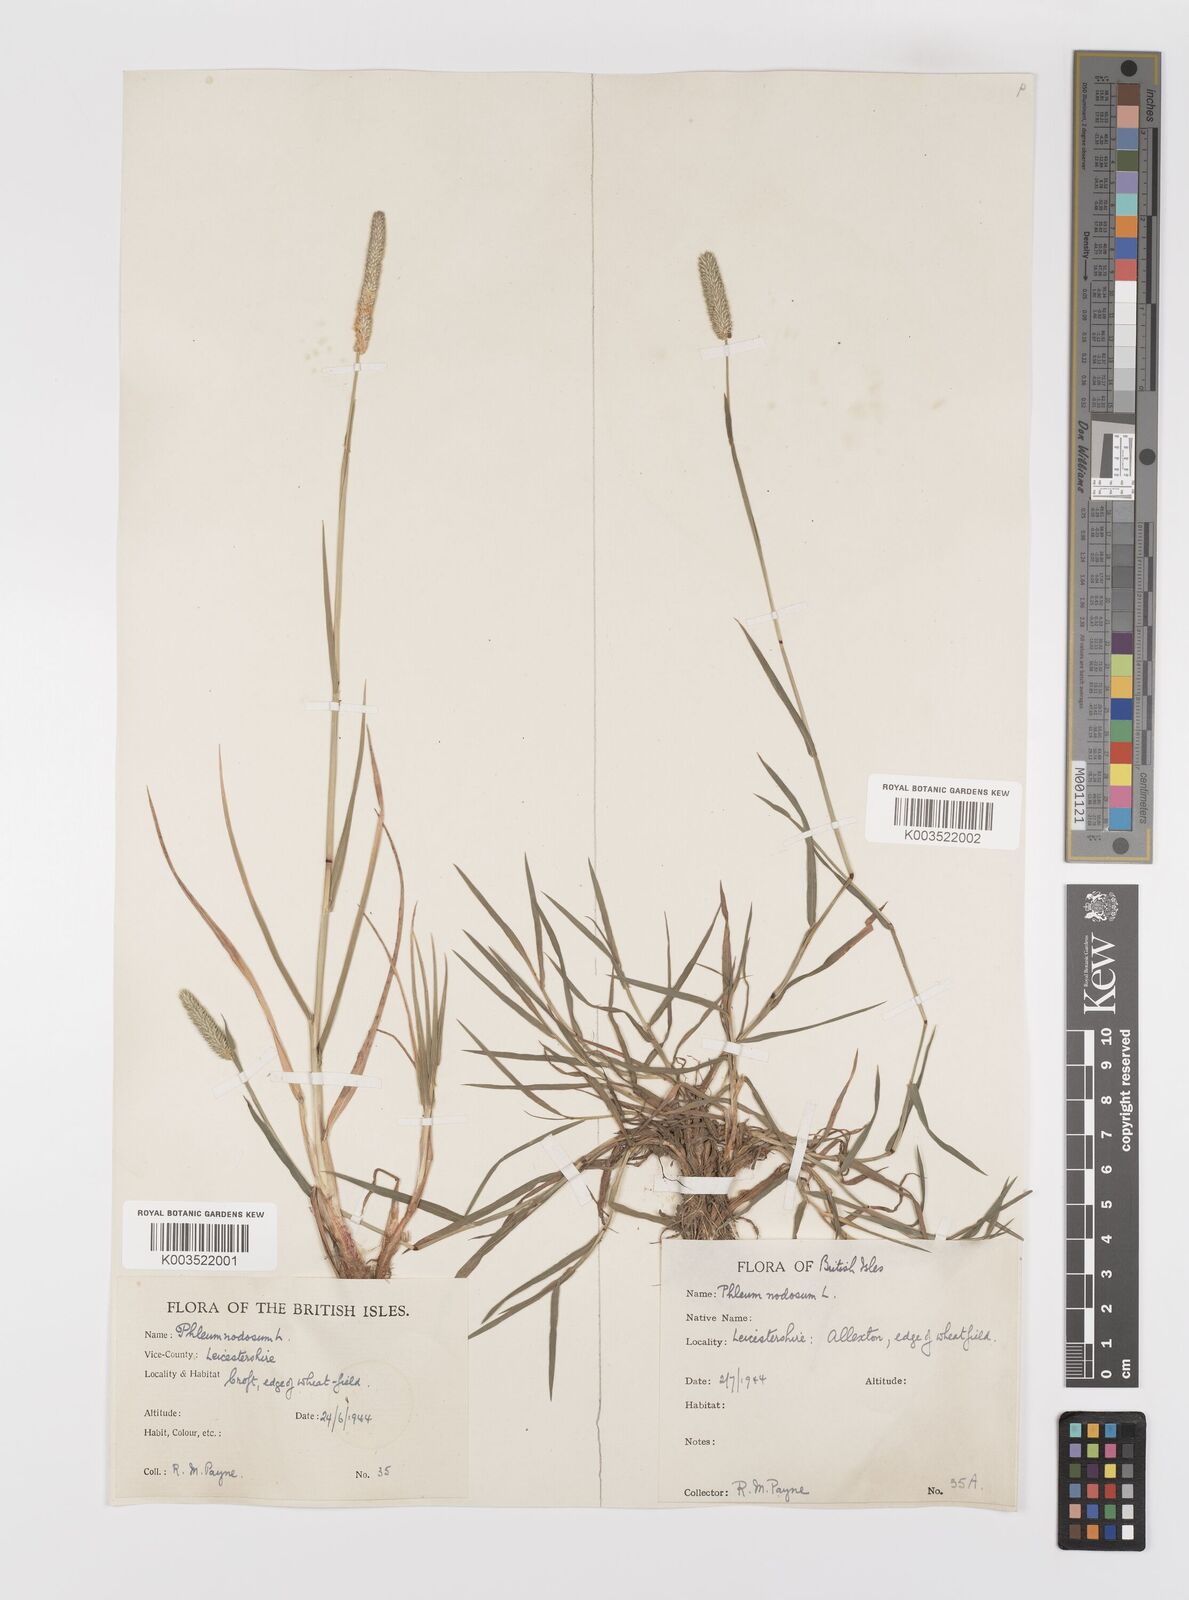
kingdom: Plantae
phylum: Tracheophyta
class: Liliopsida
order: Poales
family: Poaceae
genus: Phleum
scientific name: Phleum bertolonii
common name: Smaller cat's-tail
